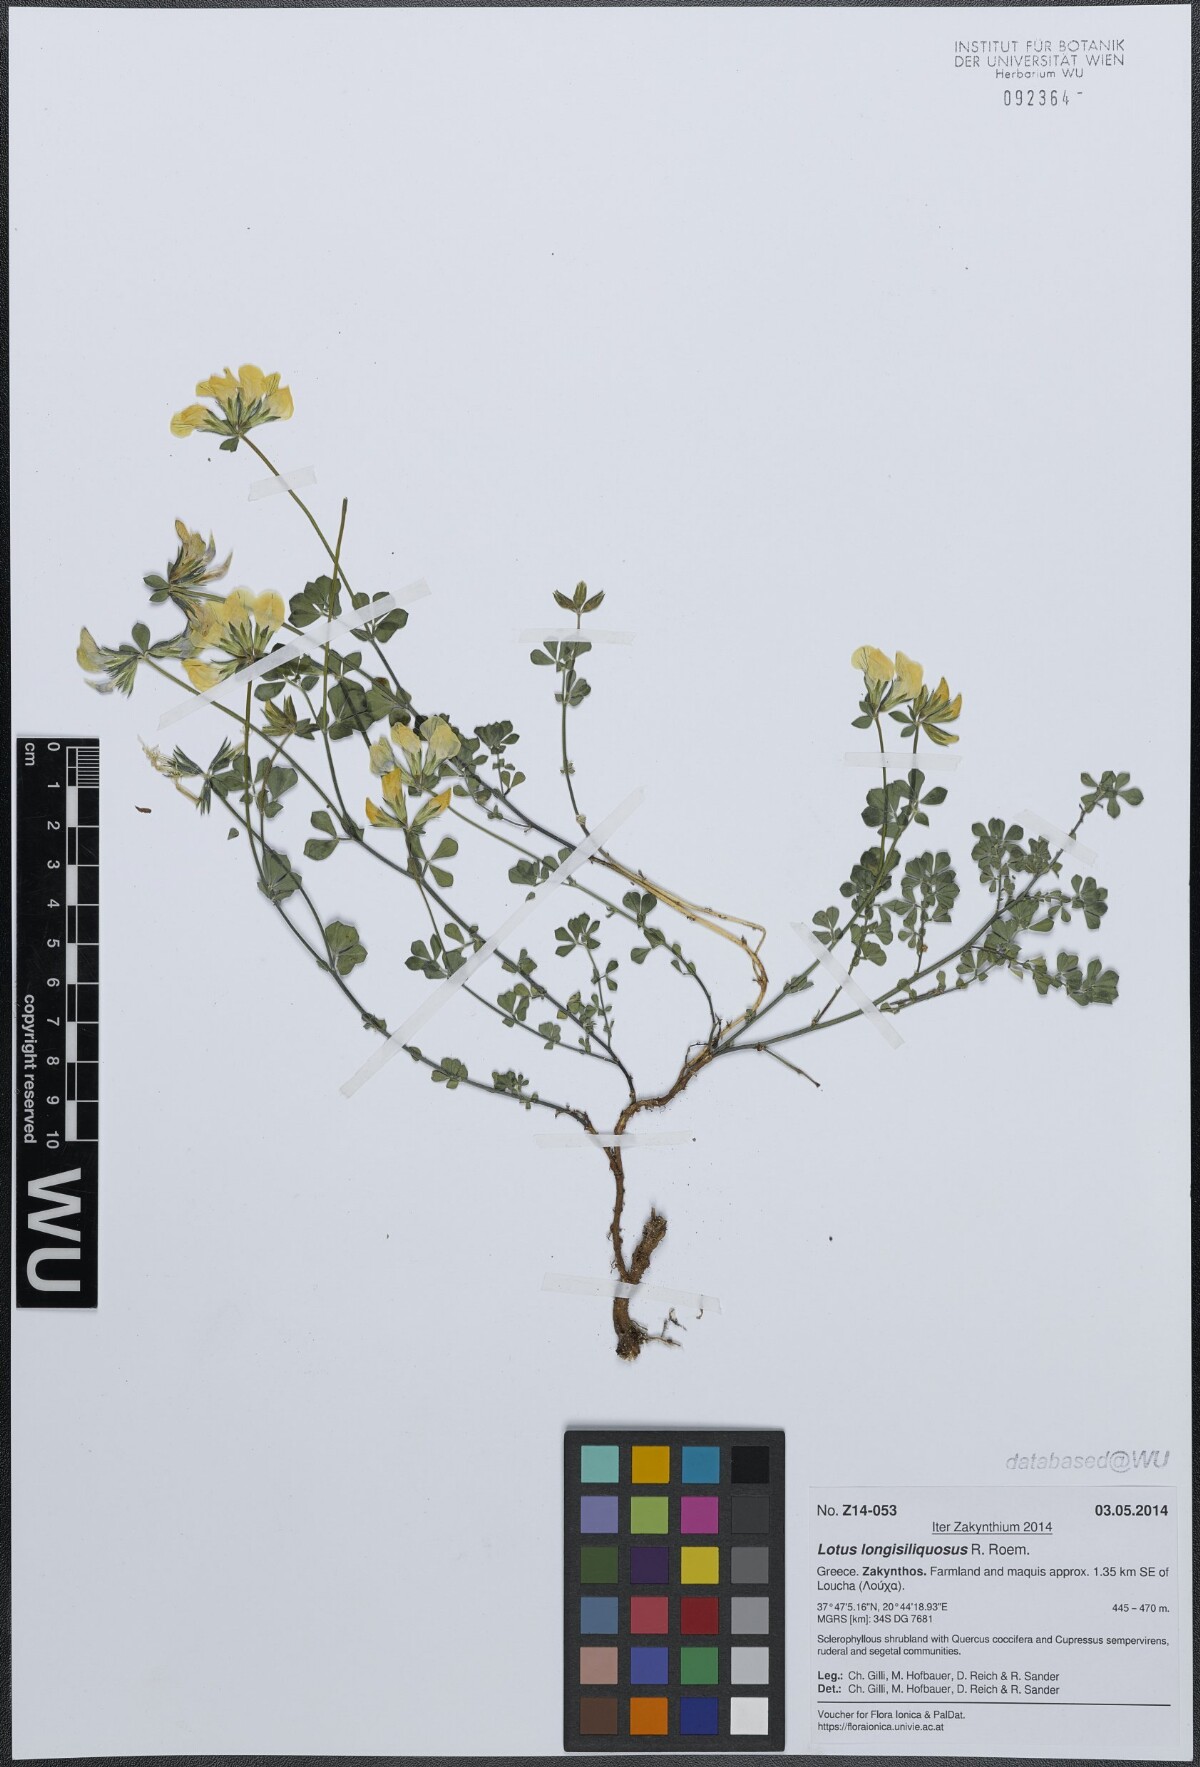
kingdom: Plantae
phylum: Tracheophyta
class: Magnoliopsida
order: Fabales
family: Fabaceae
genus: Lotus
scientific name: Lotus longisiliquosus
